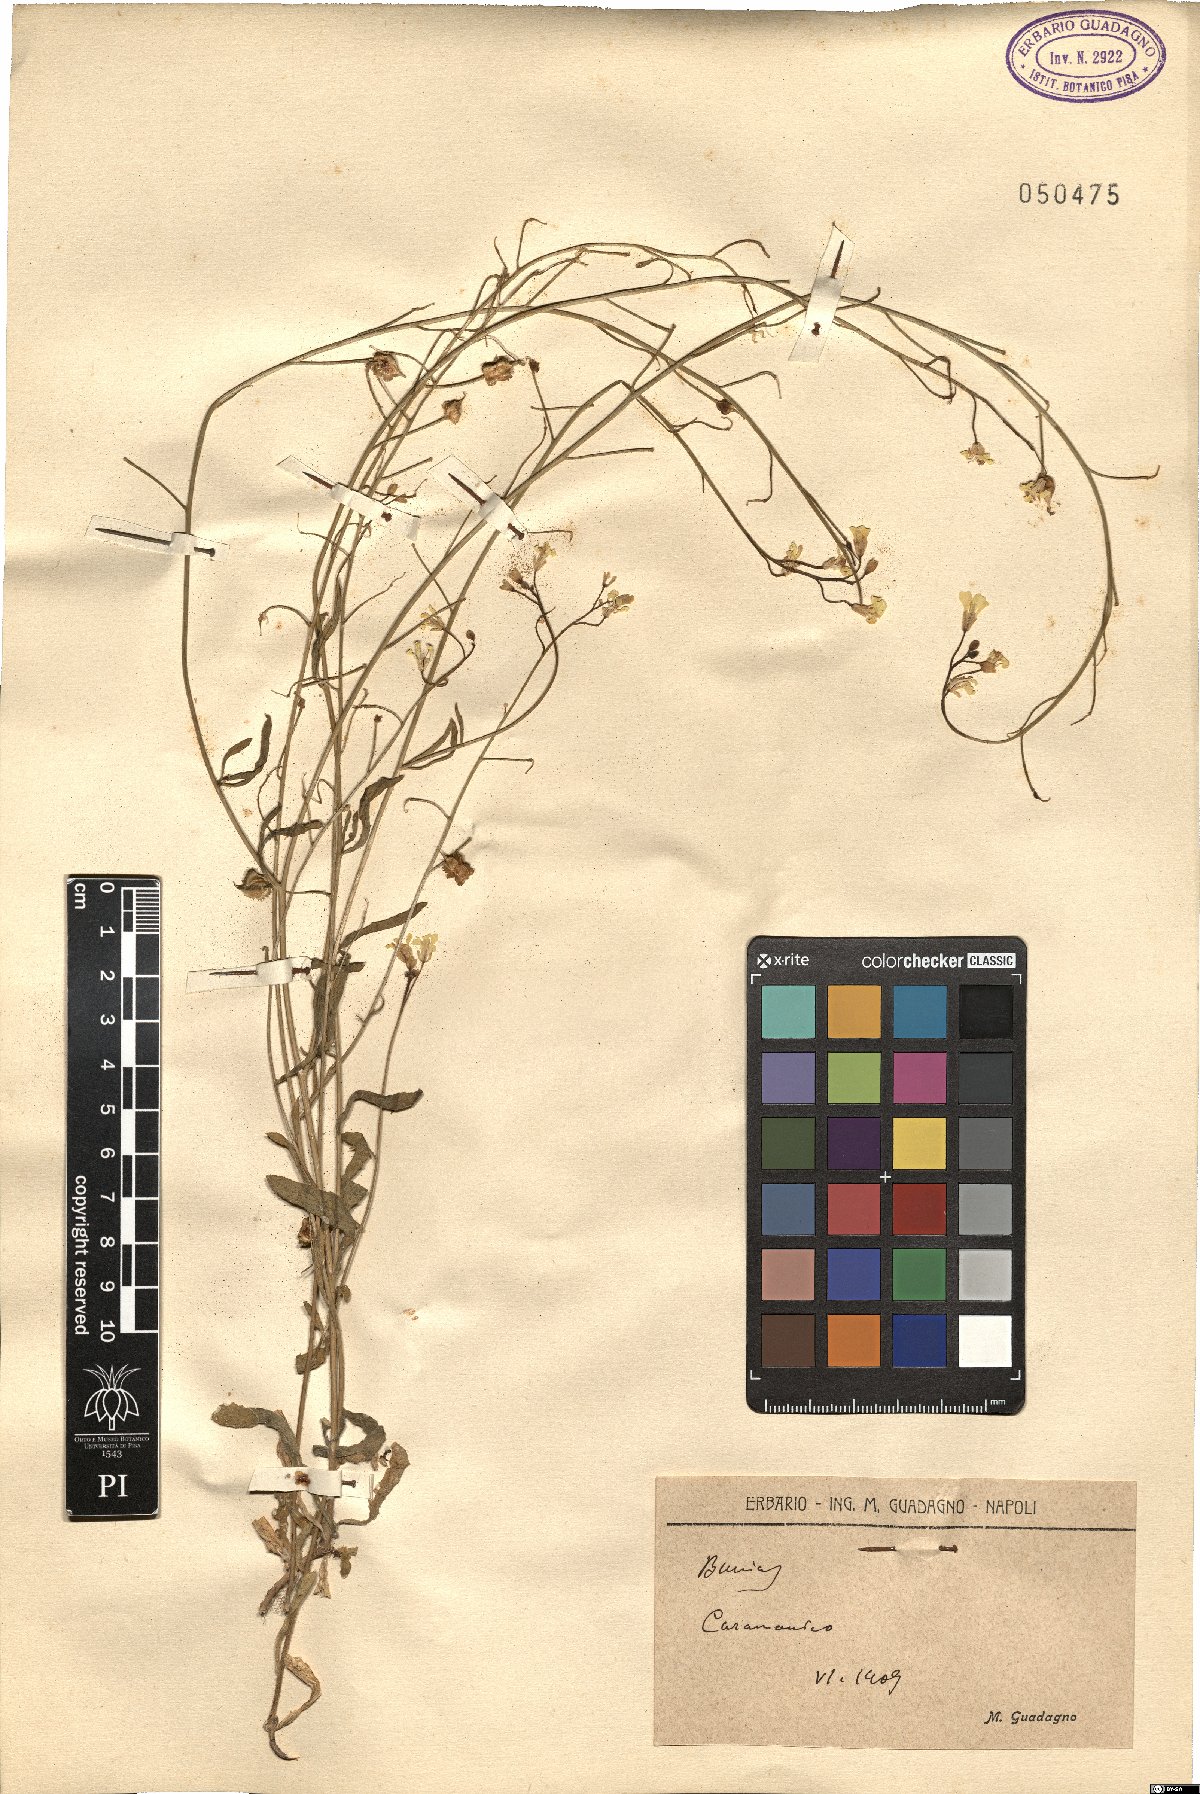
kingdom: Plantae
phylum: Tracheophyta
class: Magnoliopsida
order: Brassicales
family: Brassicaceae
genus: Bunias
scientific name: Bunias
